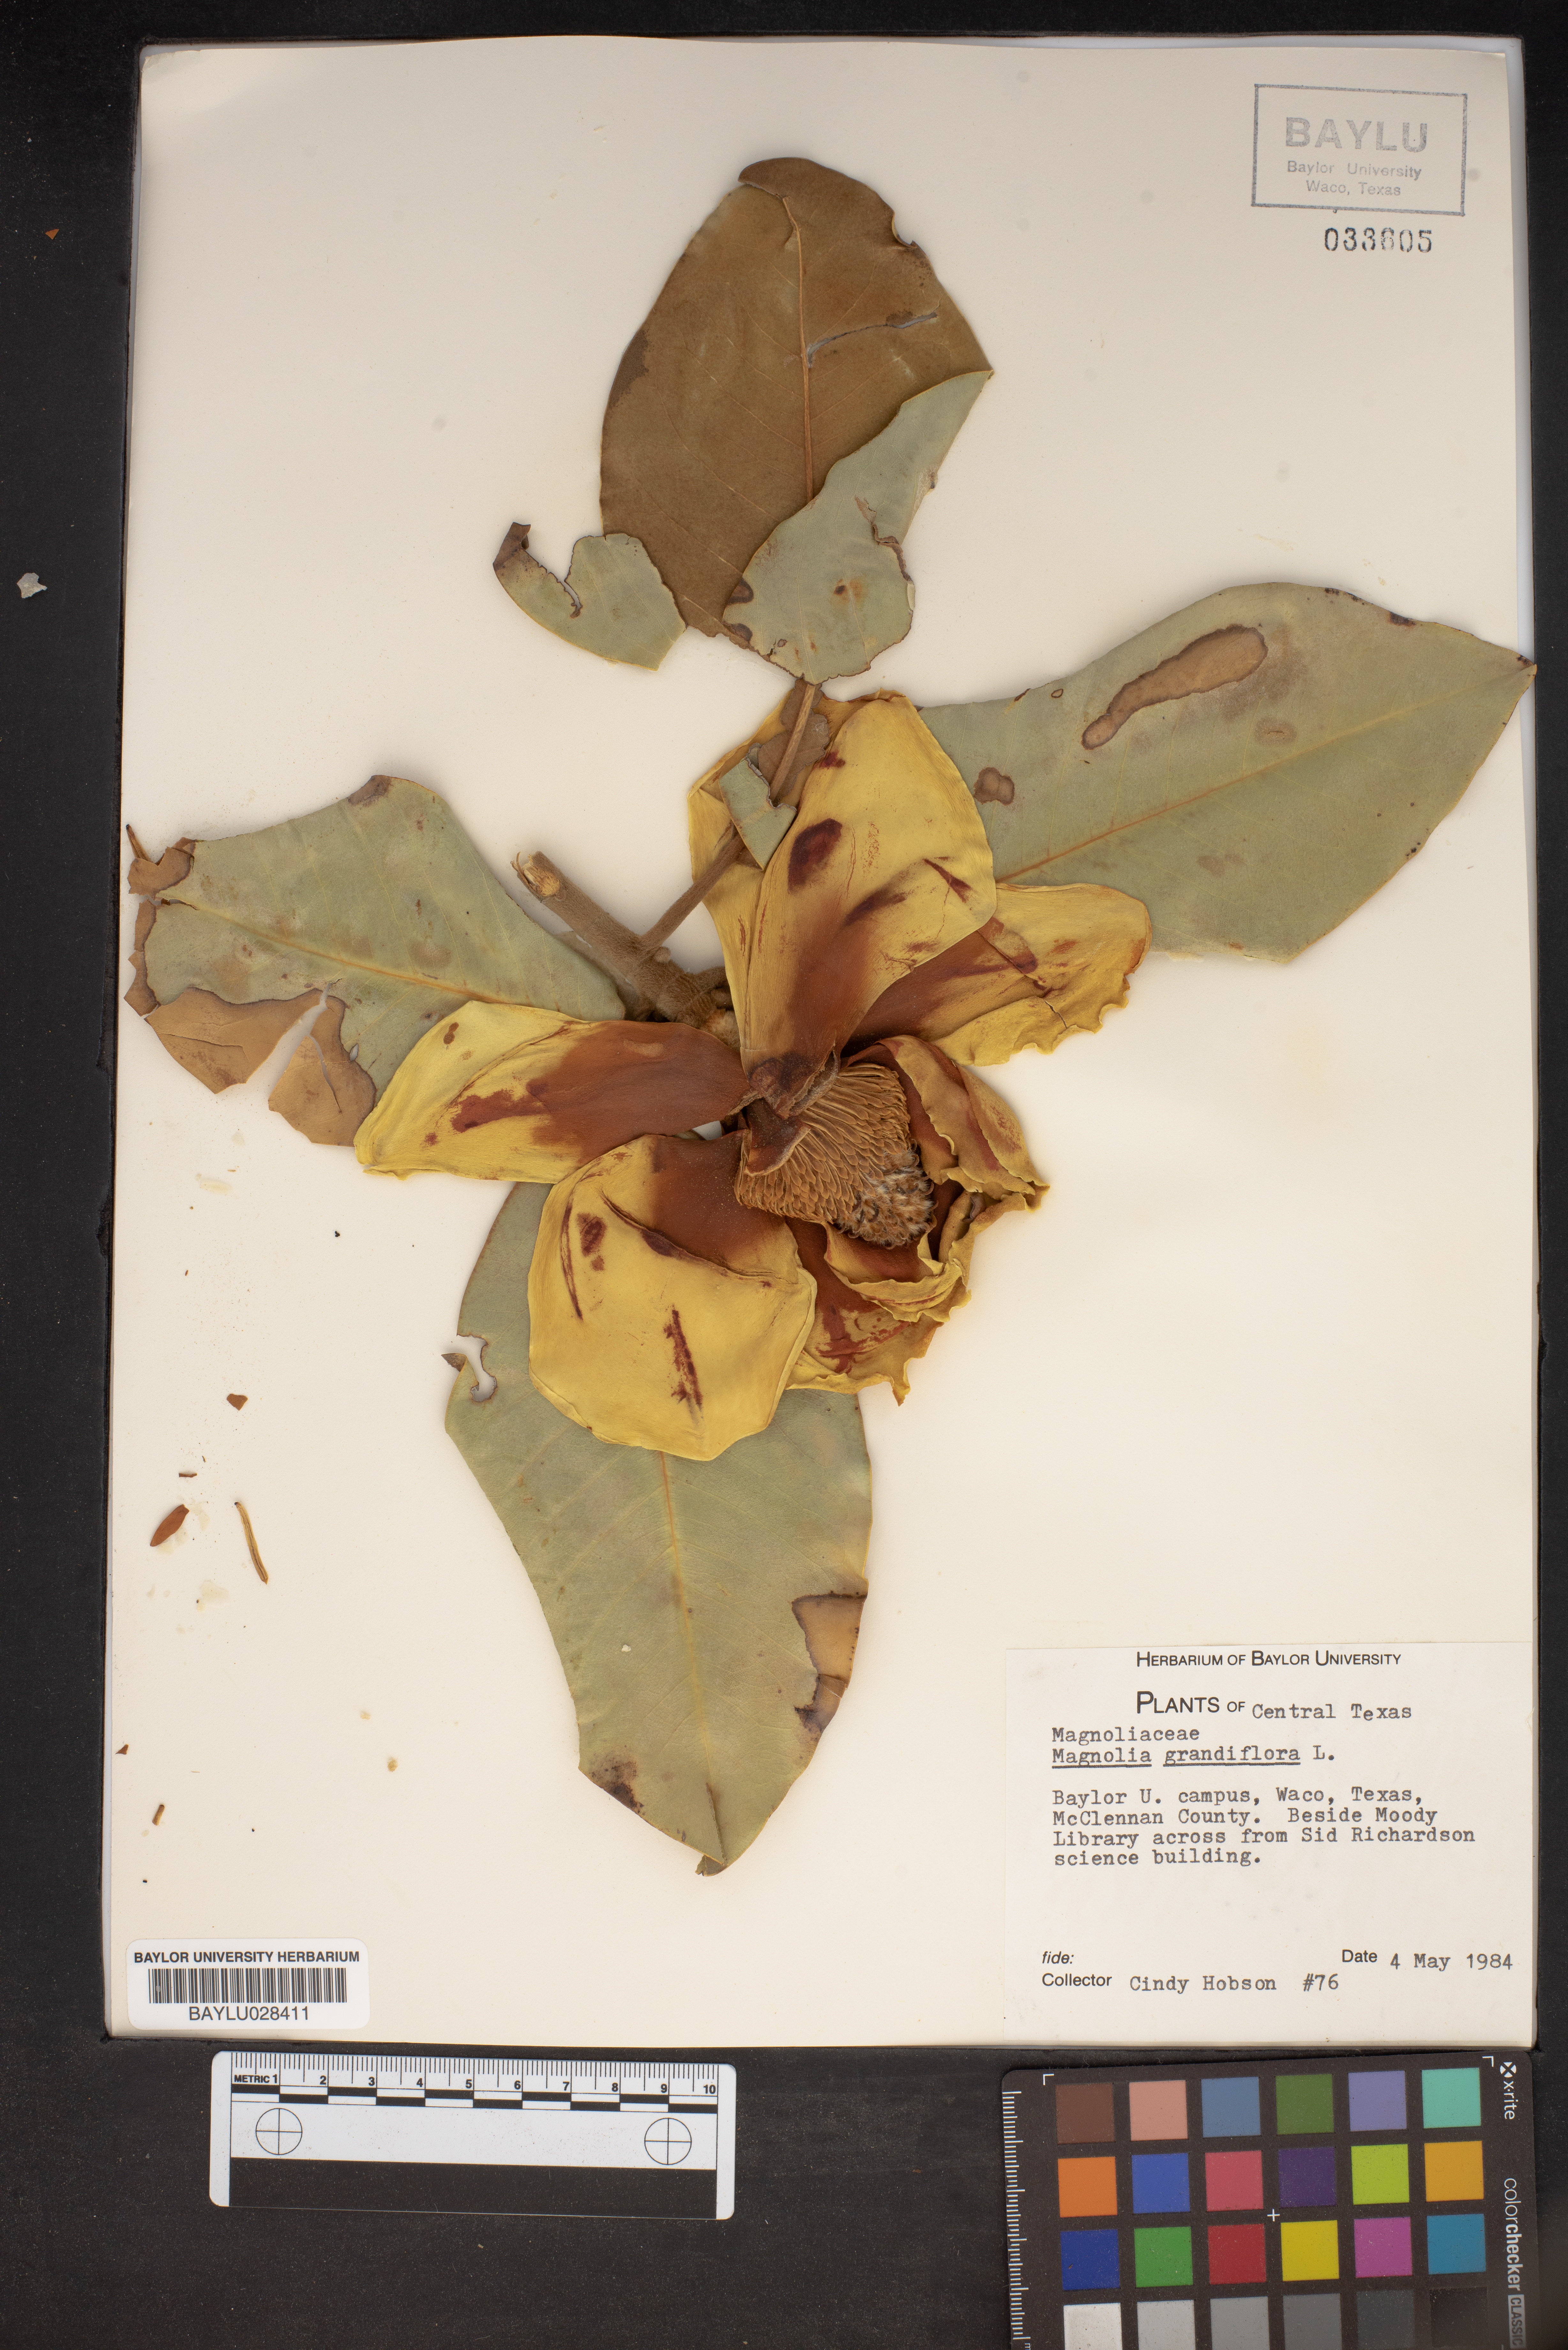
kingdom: Plantae
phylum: Tracheophyta
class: Magnoliopsida
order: Magnoliales
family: Magnoliaceae
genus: Magnolia
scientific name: Magnolia grandiflora
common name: Southern magnolia
